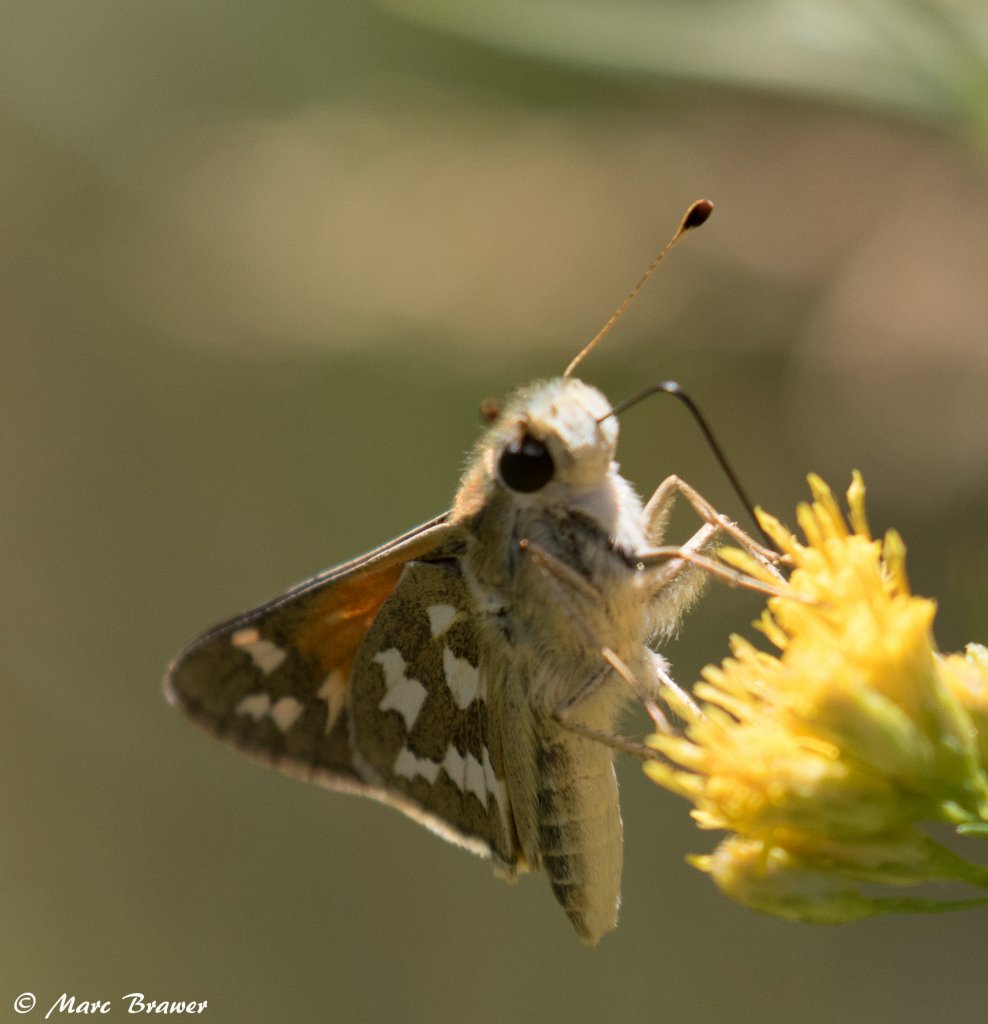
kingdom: Animalia
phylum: Arthropoda
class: Insecta
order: Lepidoptera
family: Hesperiidae
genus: Hesperia
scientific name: Hesperia juba
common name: Juba Skipper
